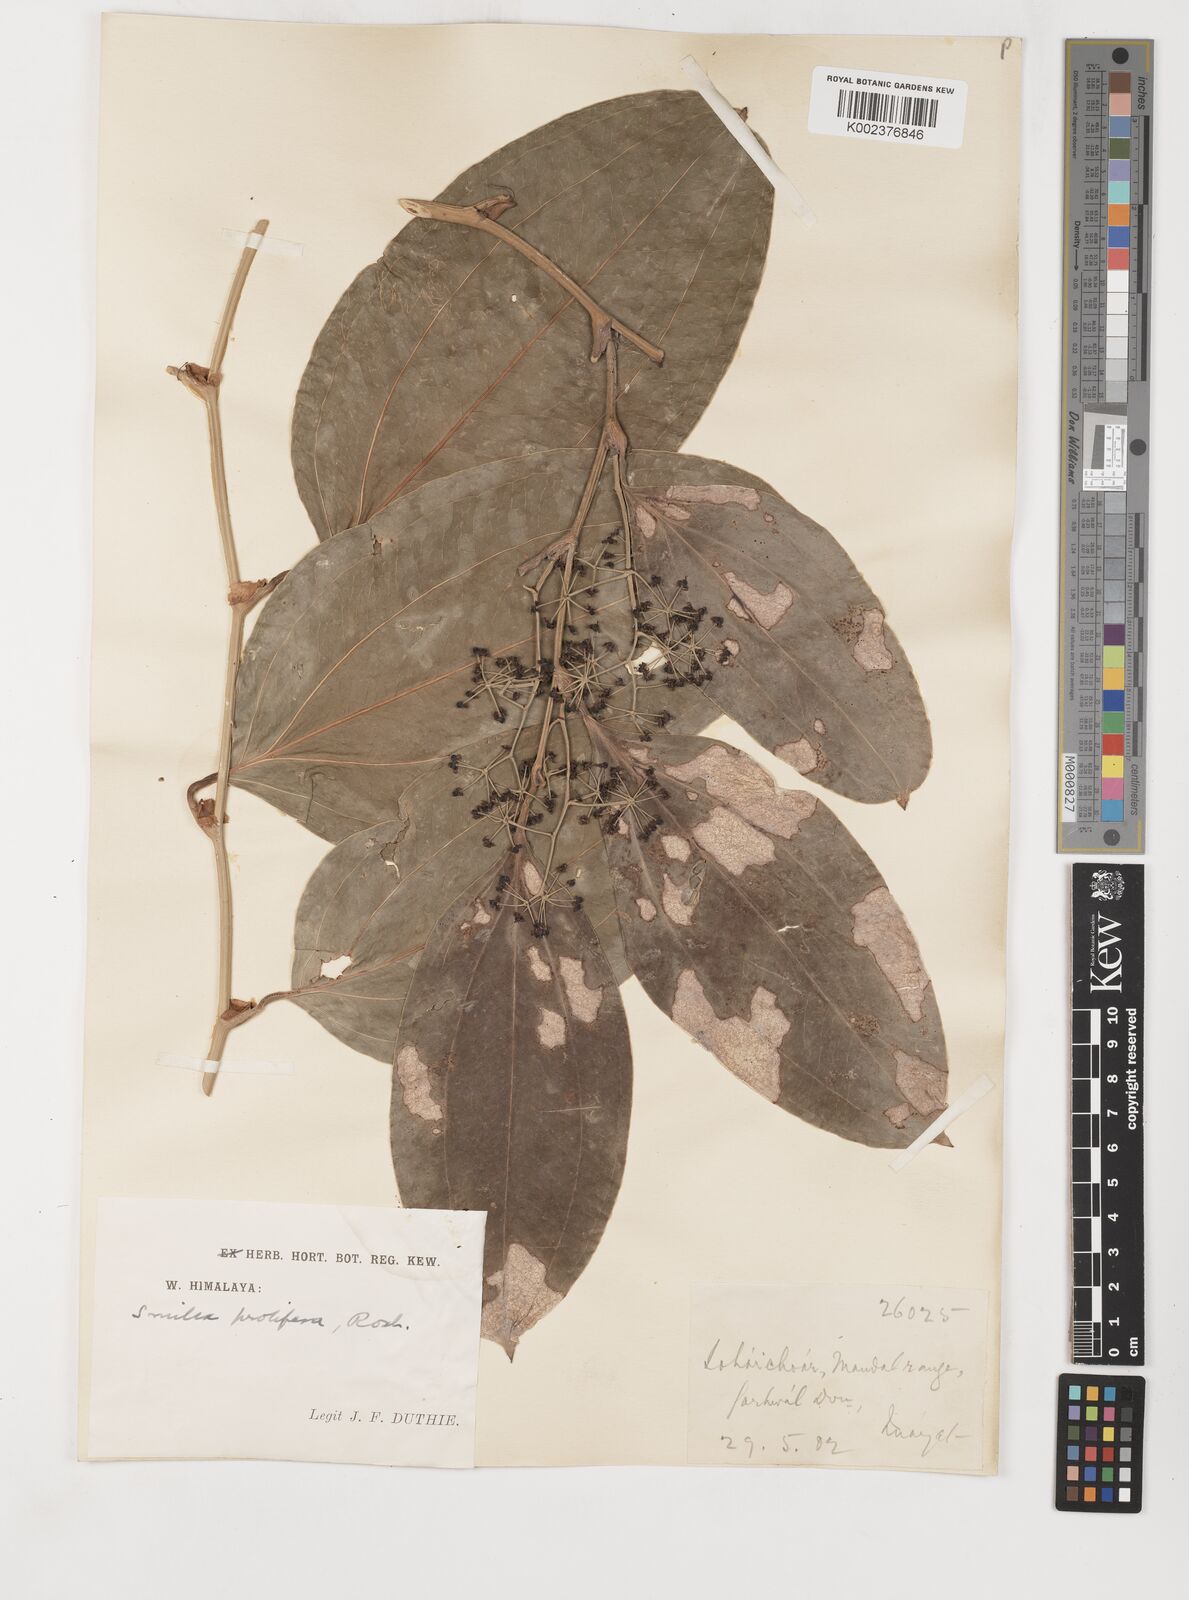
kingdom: Plantae
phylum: Tracheophyta
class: Liliopsida
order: Liliales
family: Smilacaceae
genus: Smilax
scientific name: Smilax prolifera
